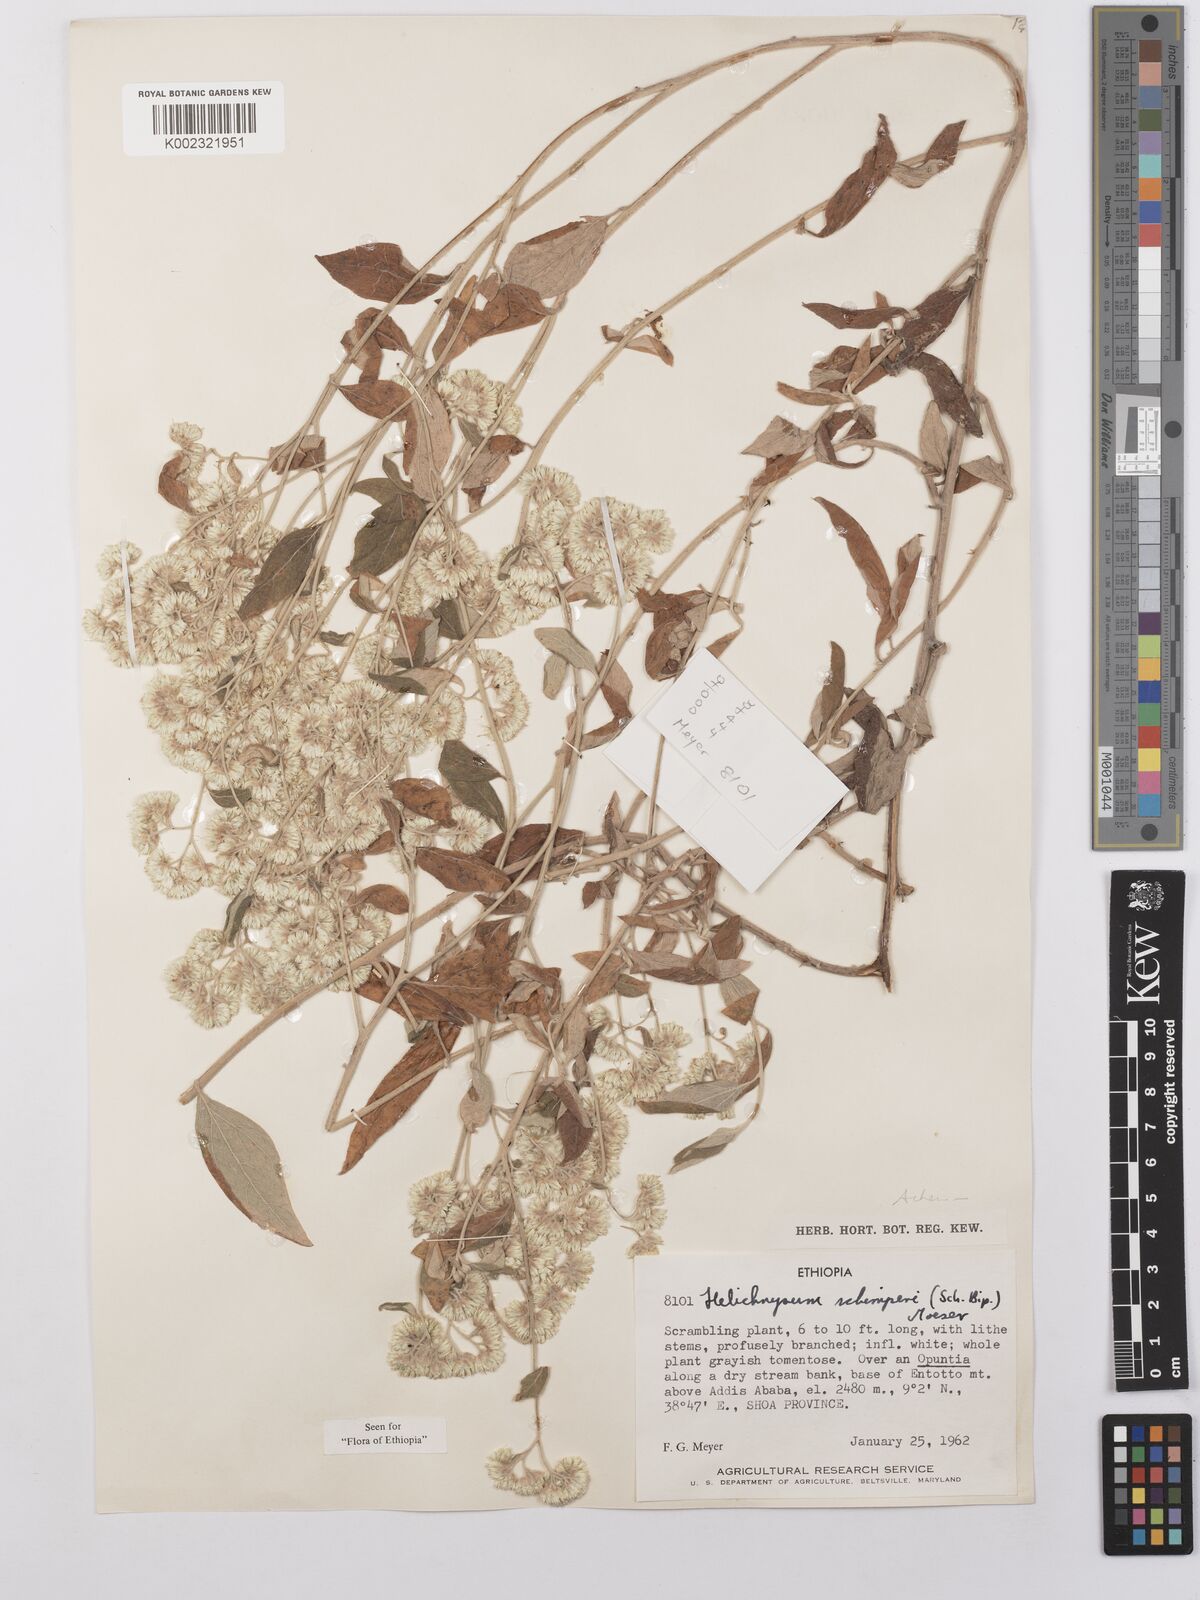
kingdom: Plantae
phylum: Tracheophyta
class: Magnoliopsida
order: Asterales
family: Asteraceae
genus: Helichrysum
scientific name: Helichrysum schimperi
